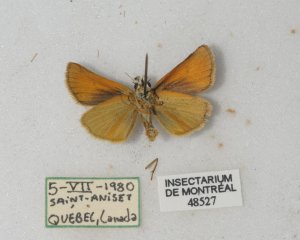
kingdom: Animalia
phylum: Arthropoda
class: Insecta
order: Lepidoptera
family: Hesperiidae
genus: Thymelicus
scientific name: Thymelicus lineola
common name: European Skipper
